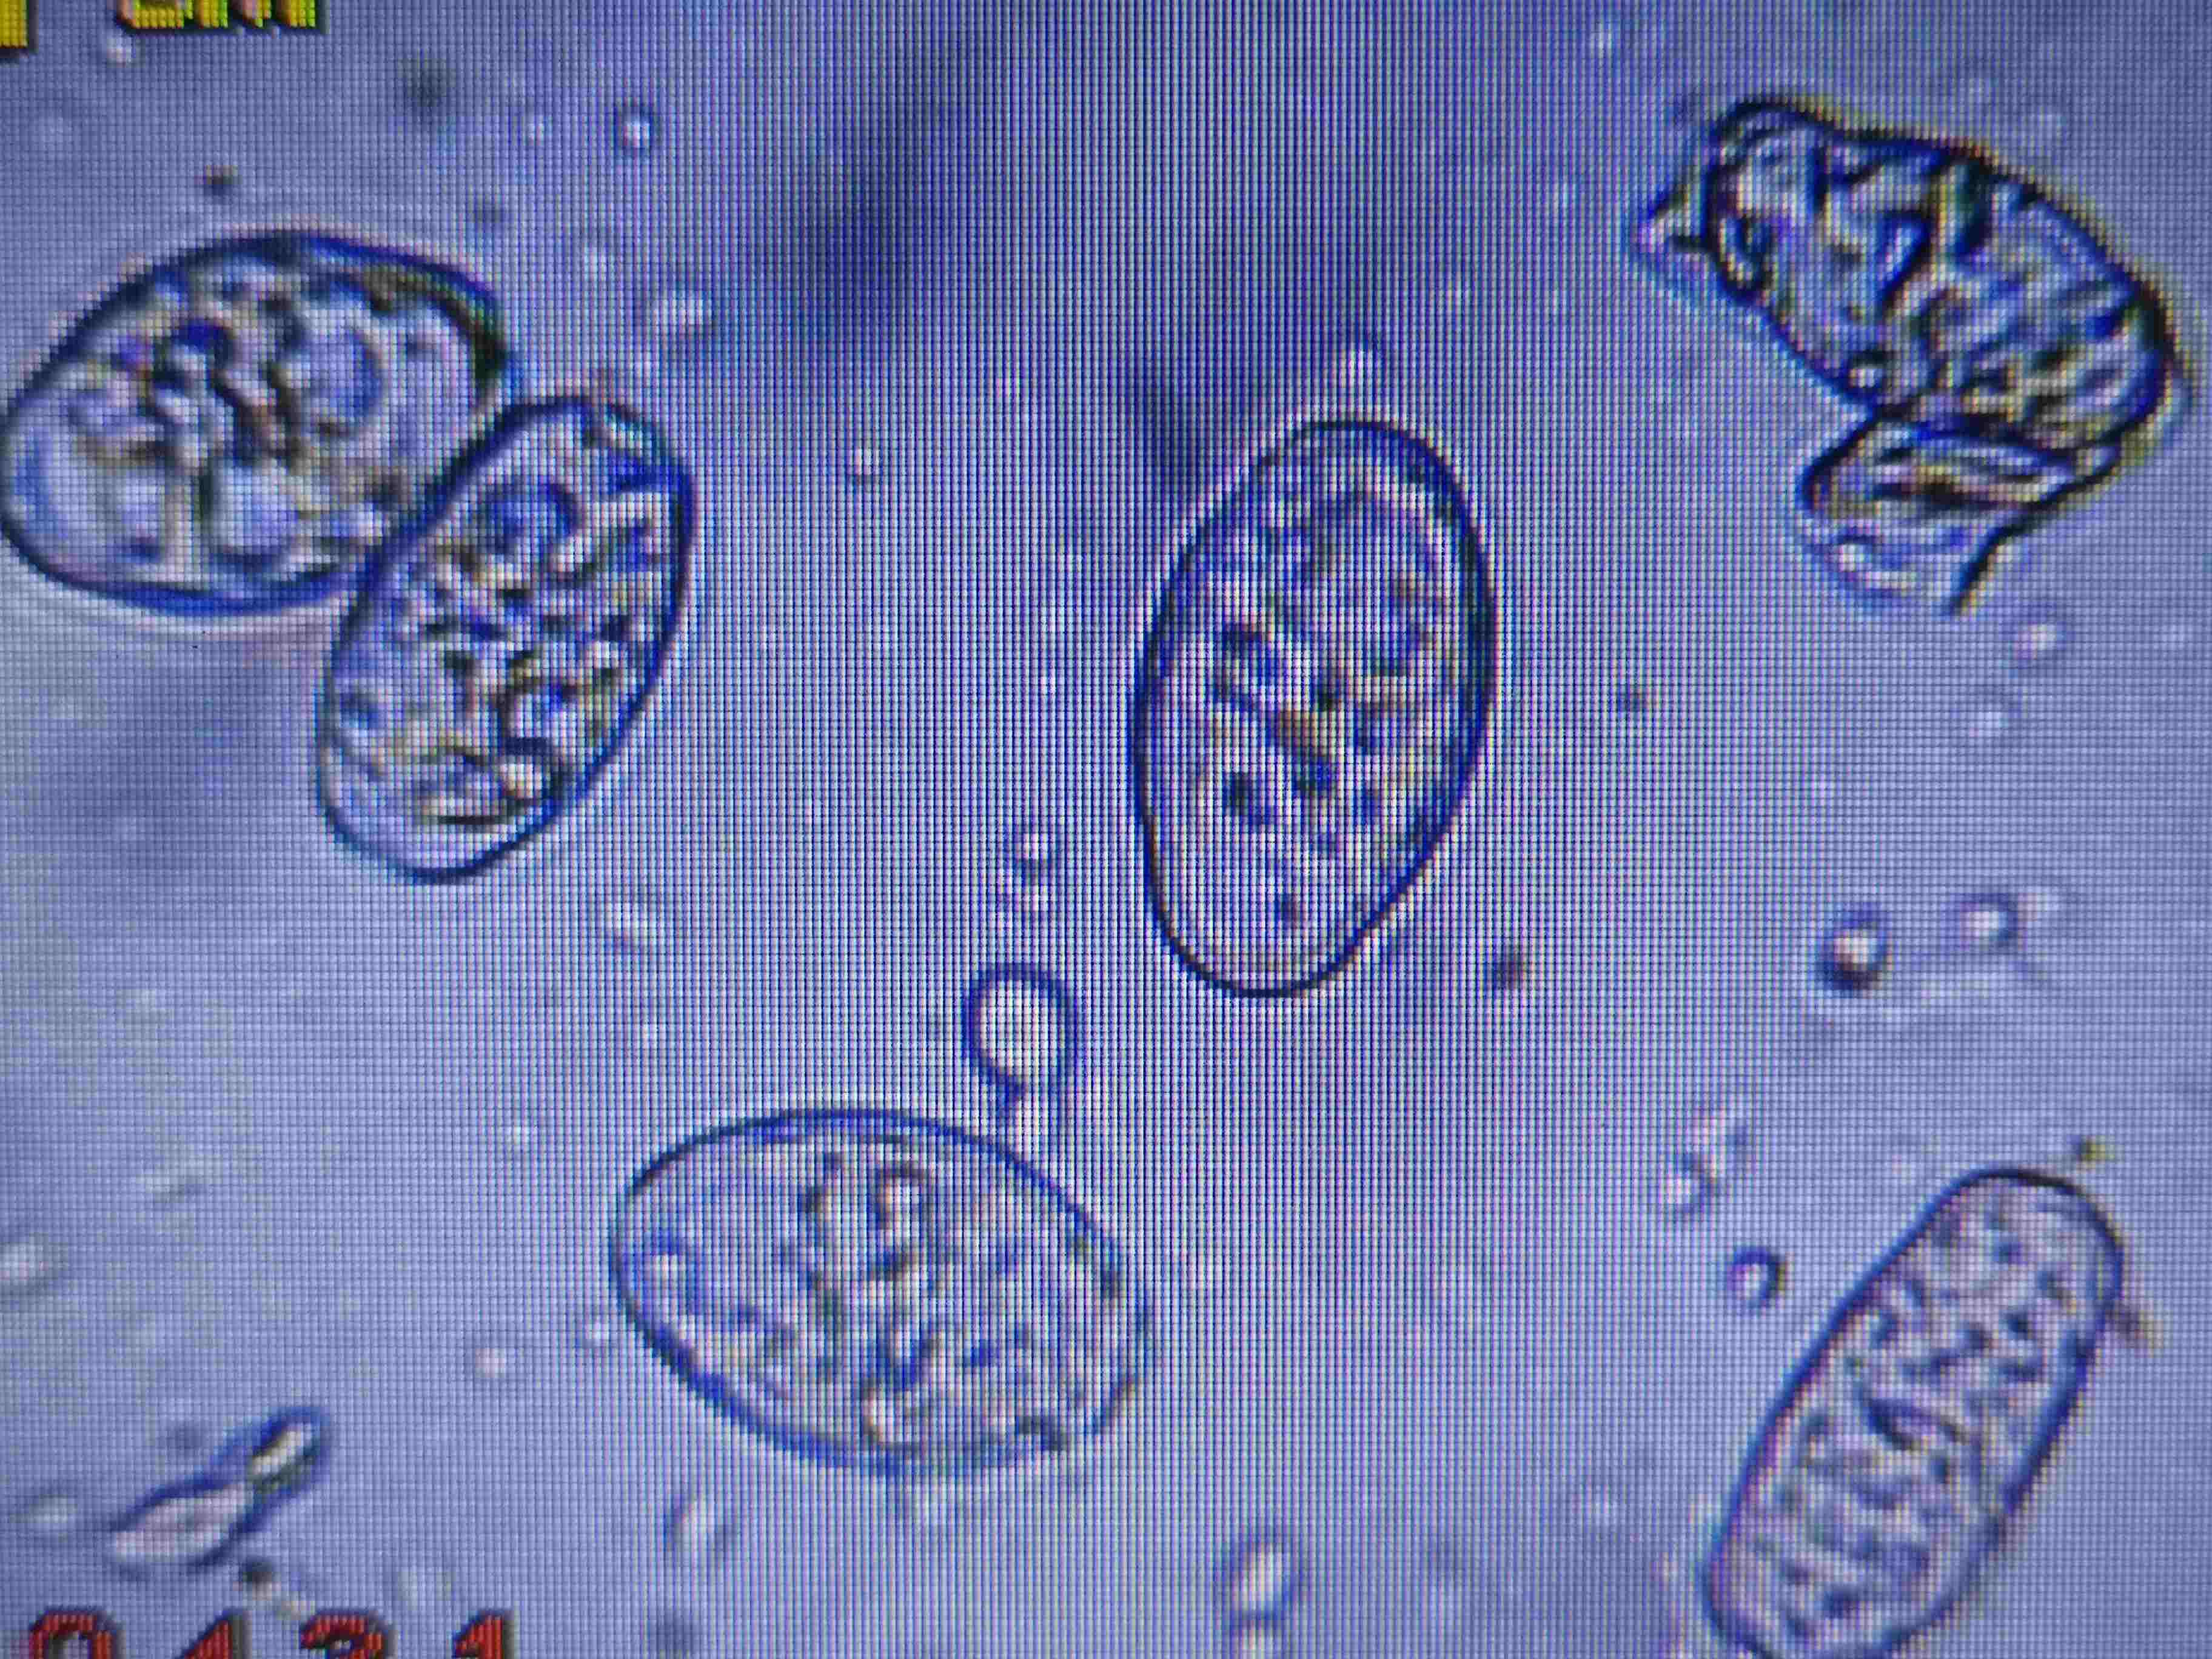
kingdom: Fungi
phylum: Ascomycota
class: Leotiomycetes
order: Helotiales
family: Erysiphaceae
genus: Neoerysiphe
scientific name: Neoerysiphe galeopsidis
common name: Mint mildew
